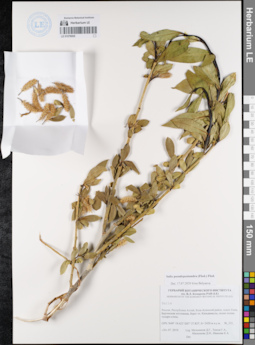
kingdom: Plantae
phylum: Tracheophyta
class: Magnoliopsida
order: Malpighiales
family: Salicaceae
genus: Salix
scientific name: Salix pseudopentandra
